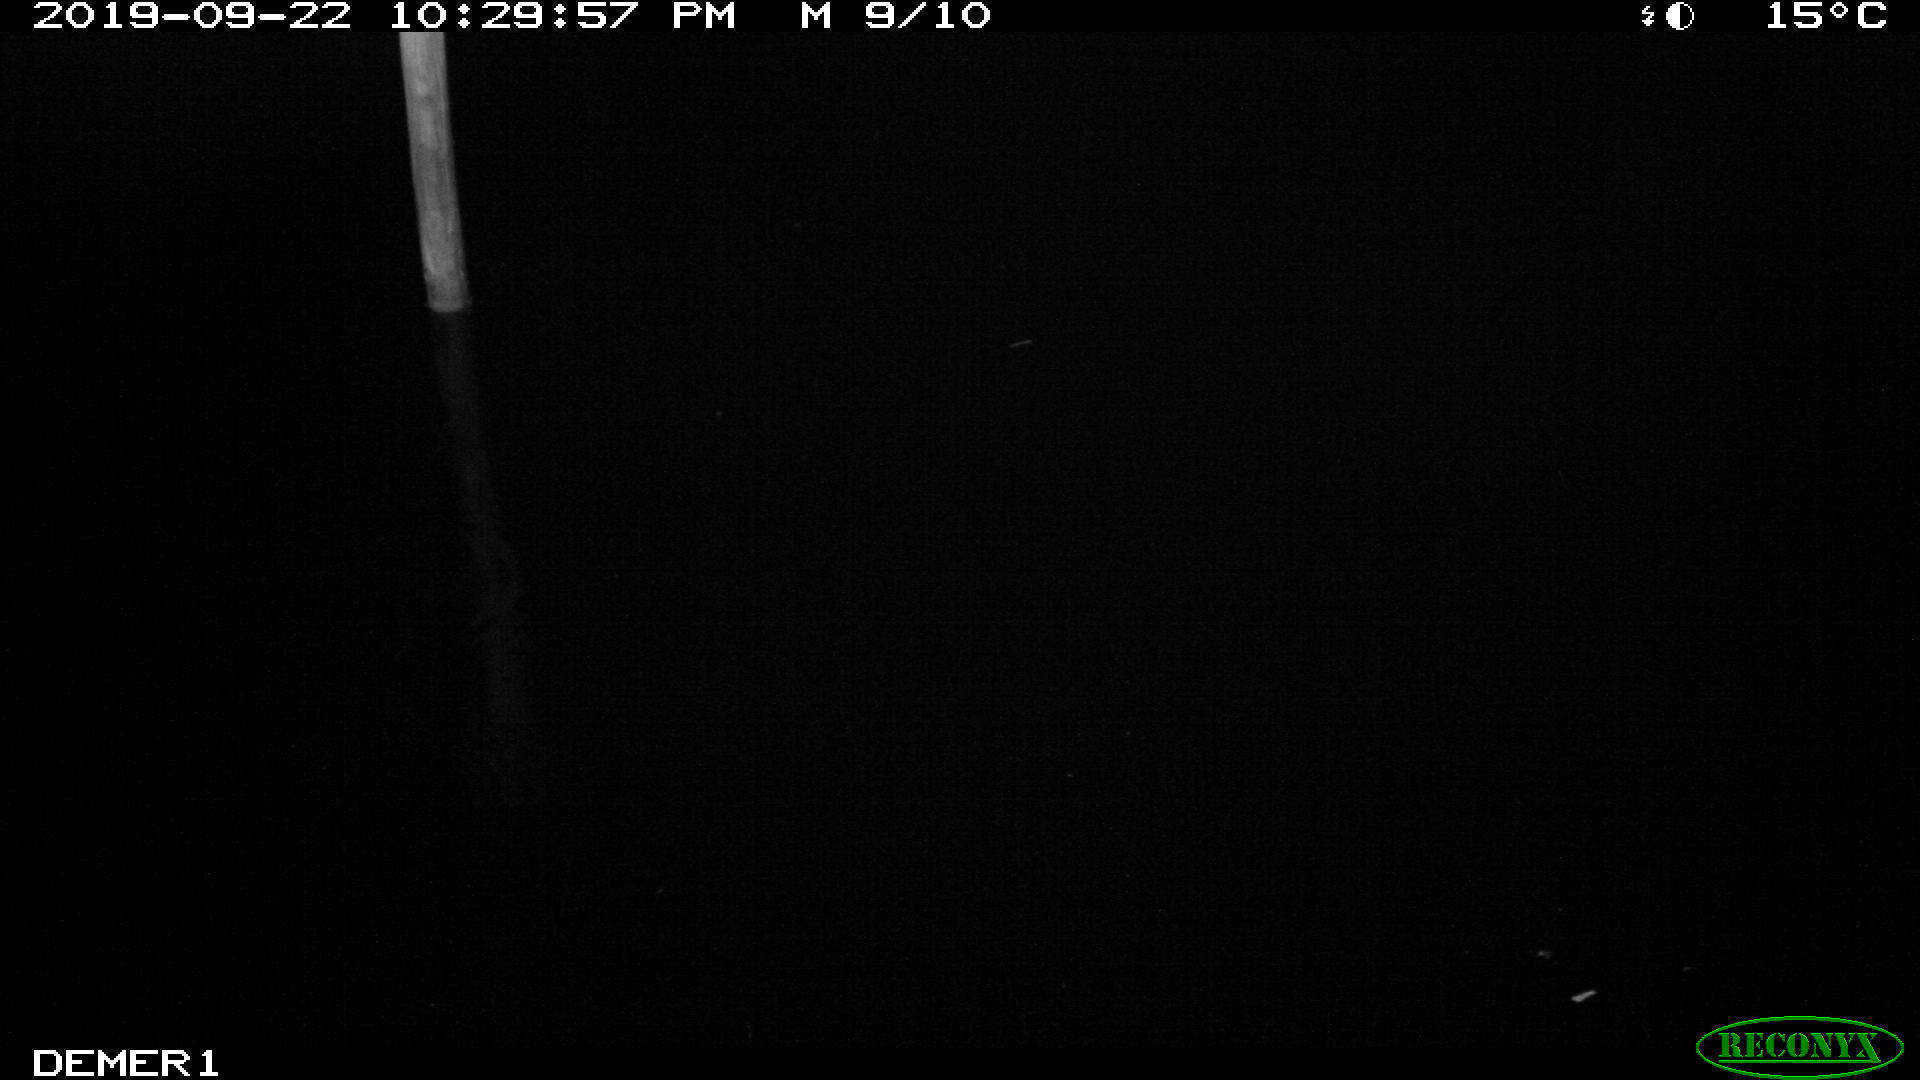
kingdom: Animalia
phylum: Chordata
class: Aves
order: Anseriformes
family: Anatidae
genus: Anas
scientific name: Anas platyrhynchos
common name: Mallard
